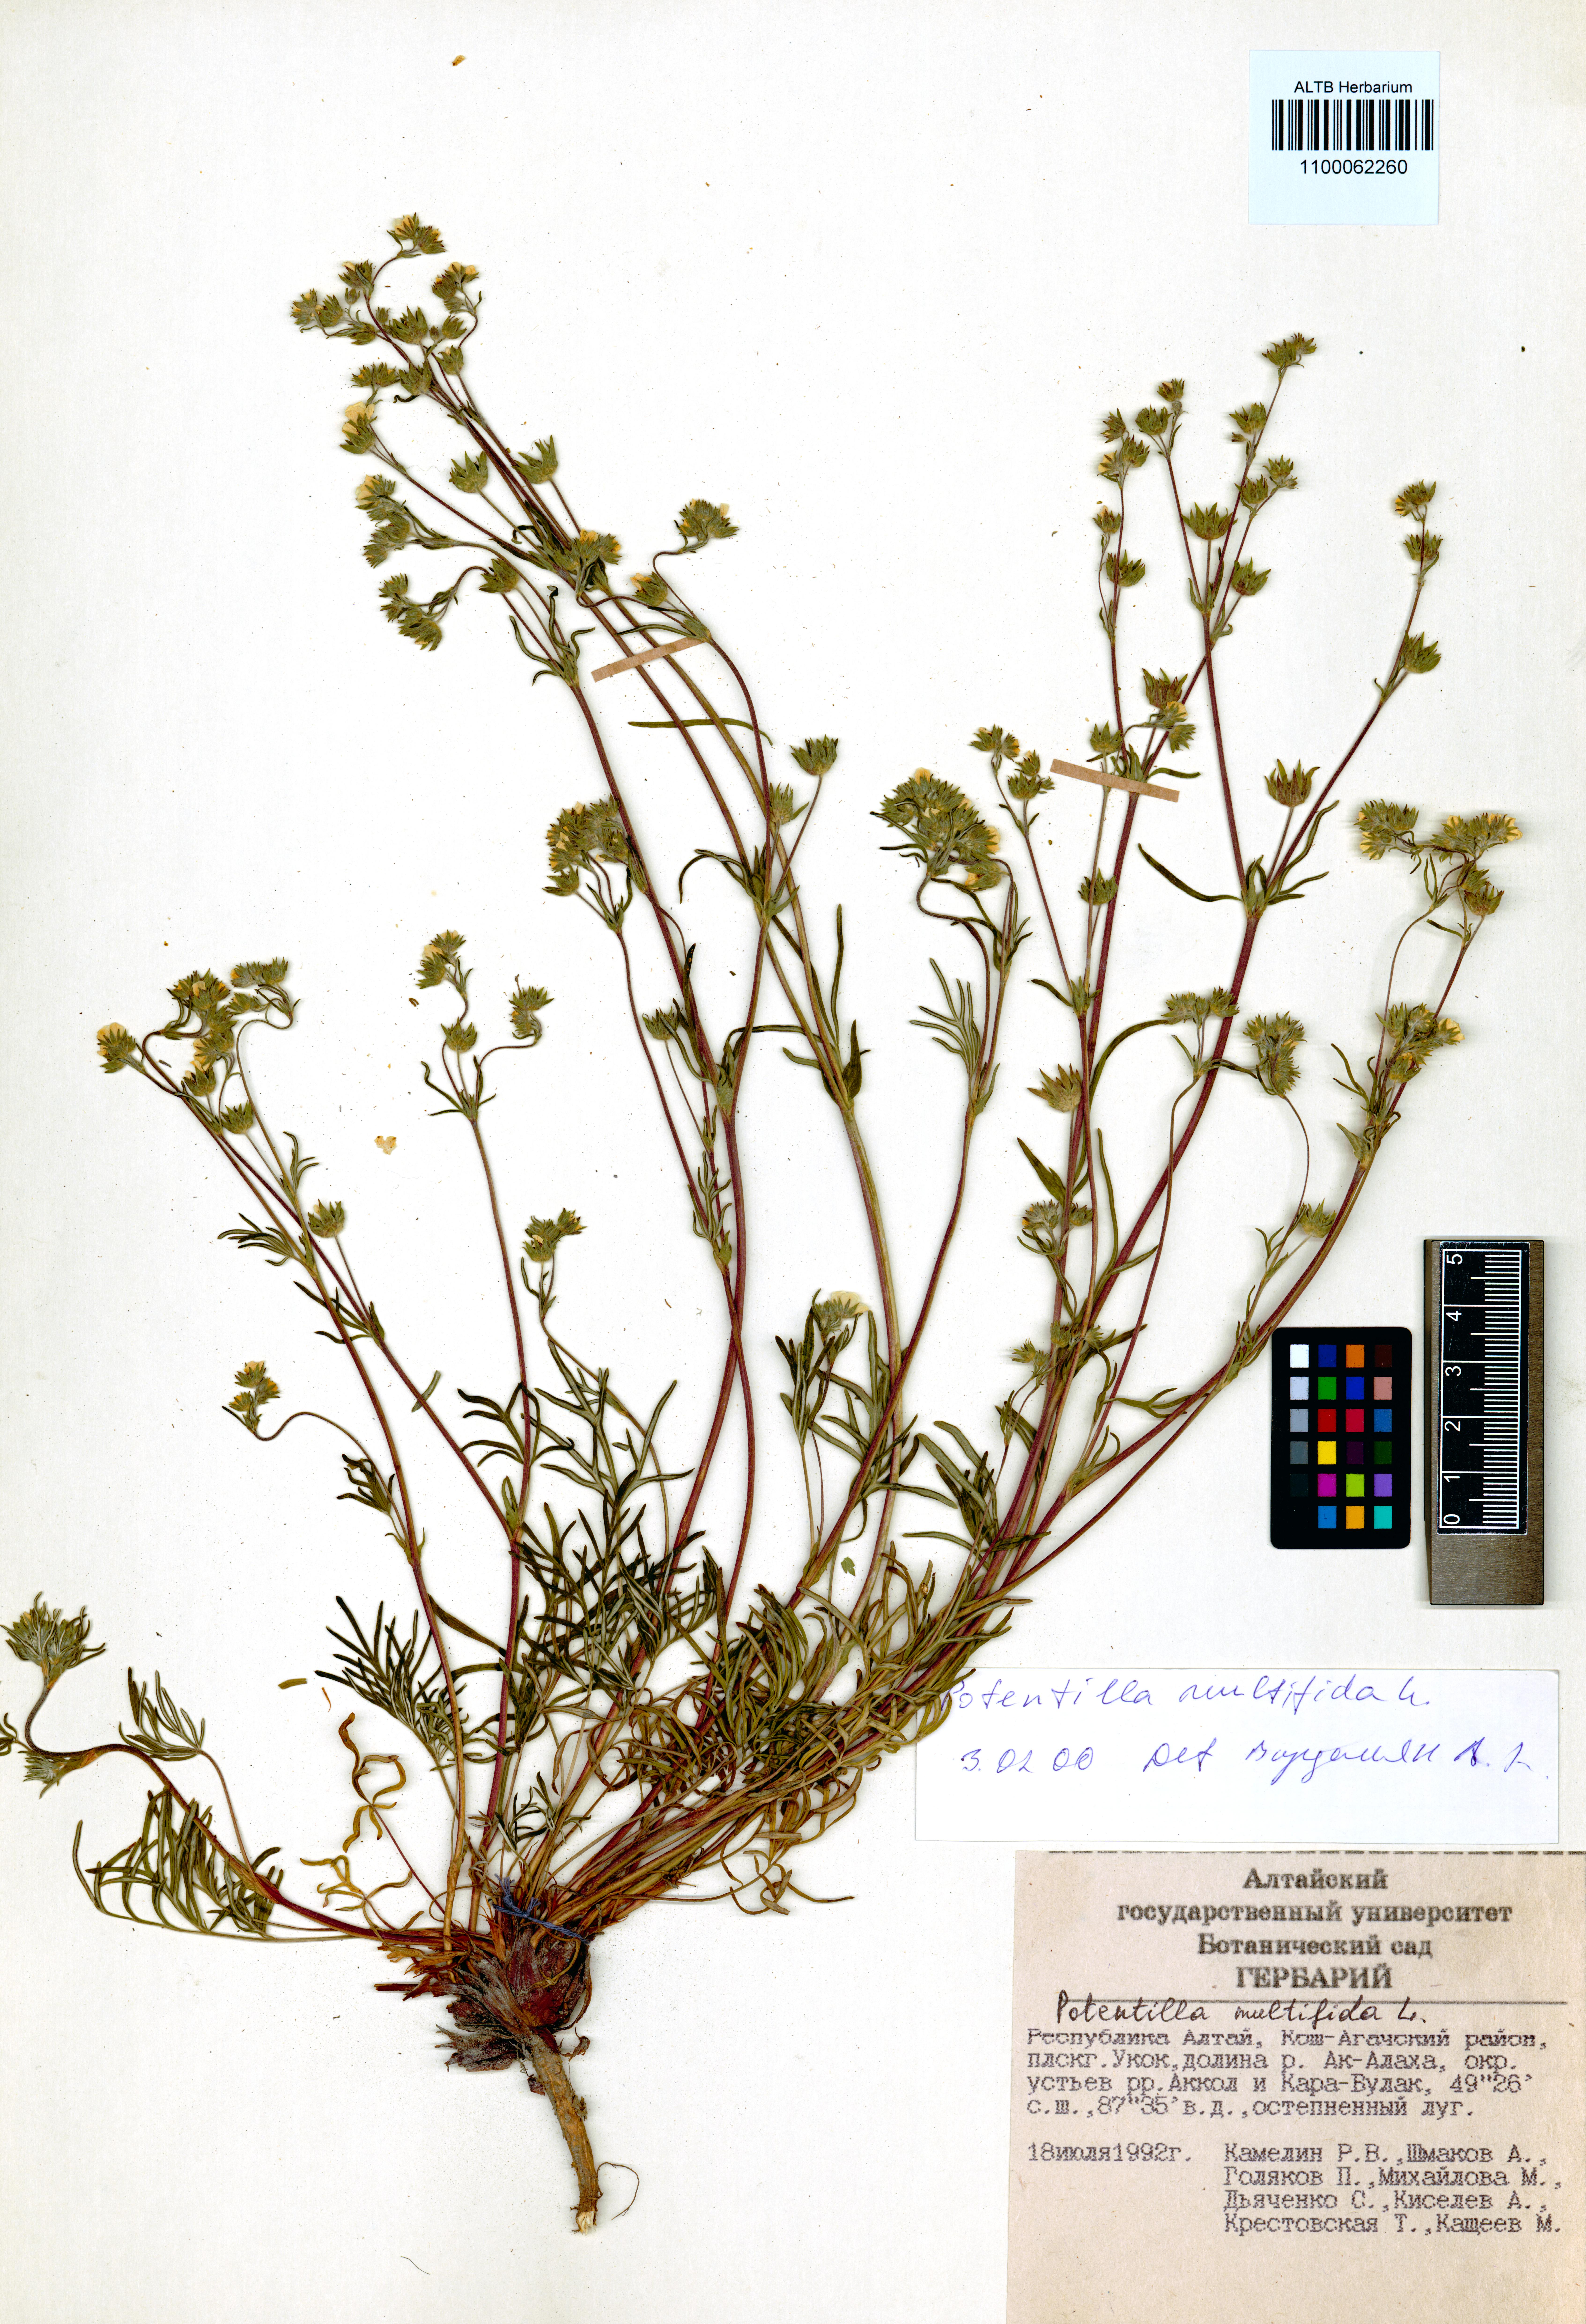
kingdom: Plantae
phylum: Tracheophyta
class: Magnoliopsida
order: Rosales
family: Rosaceae
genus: Potentilla
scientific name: Potentilla multifida
